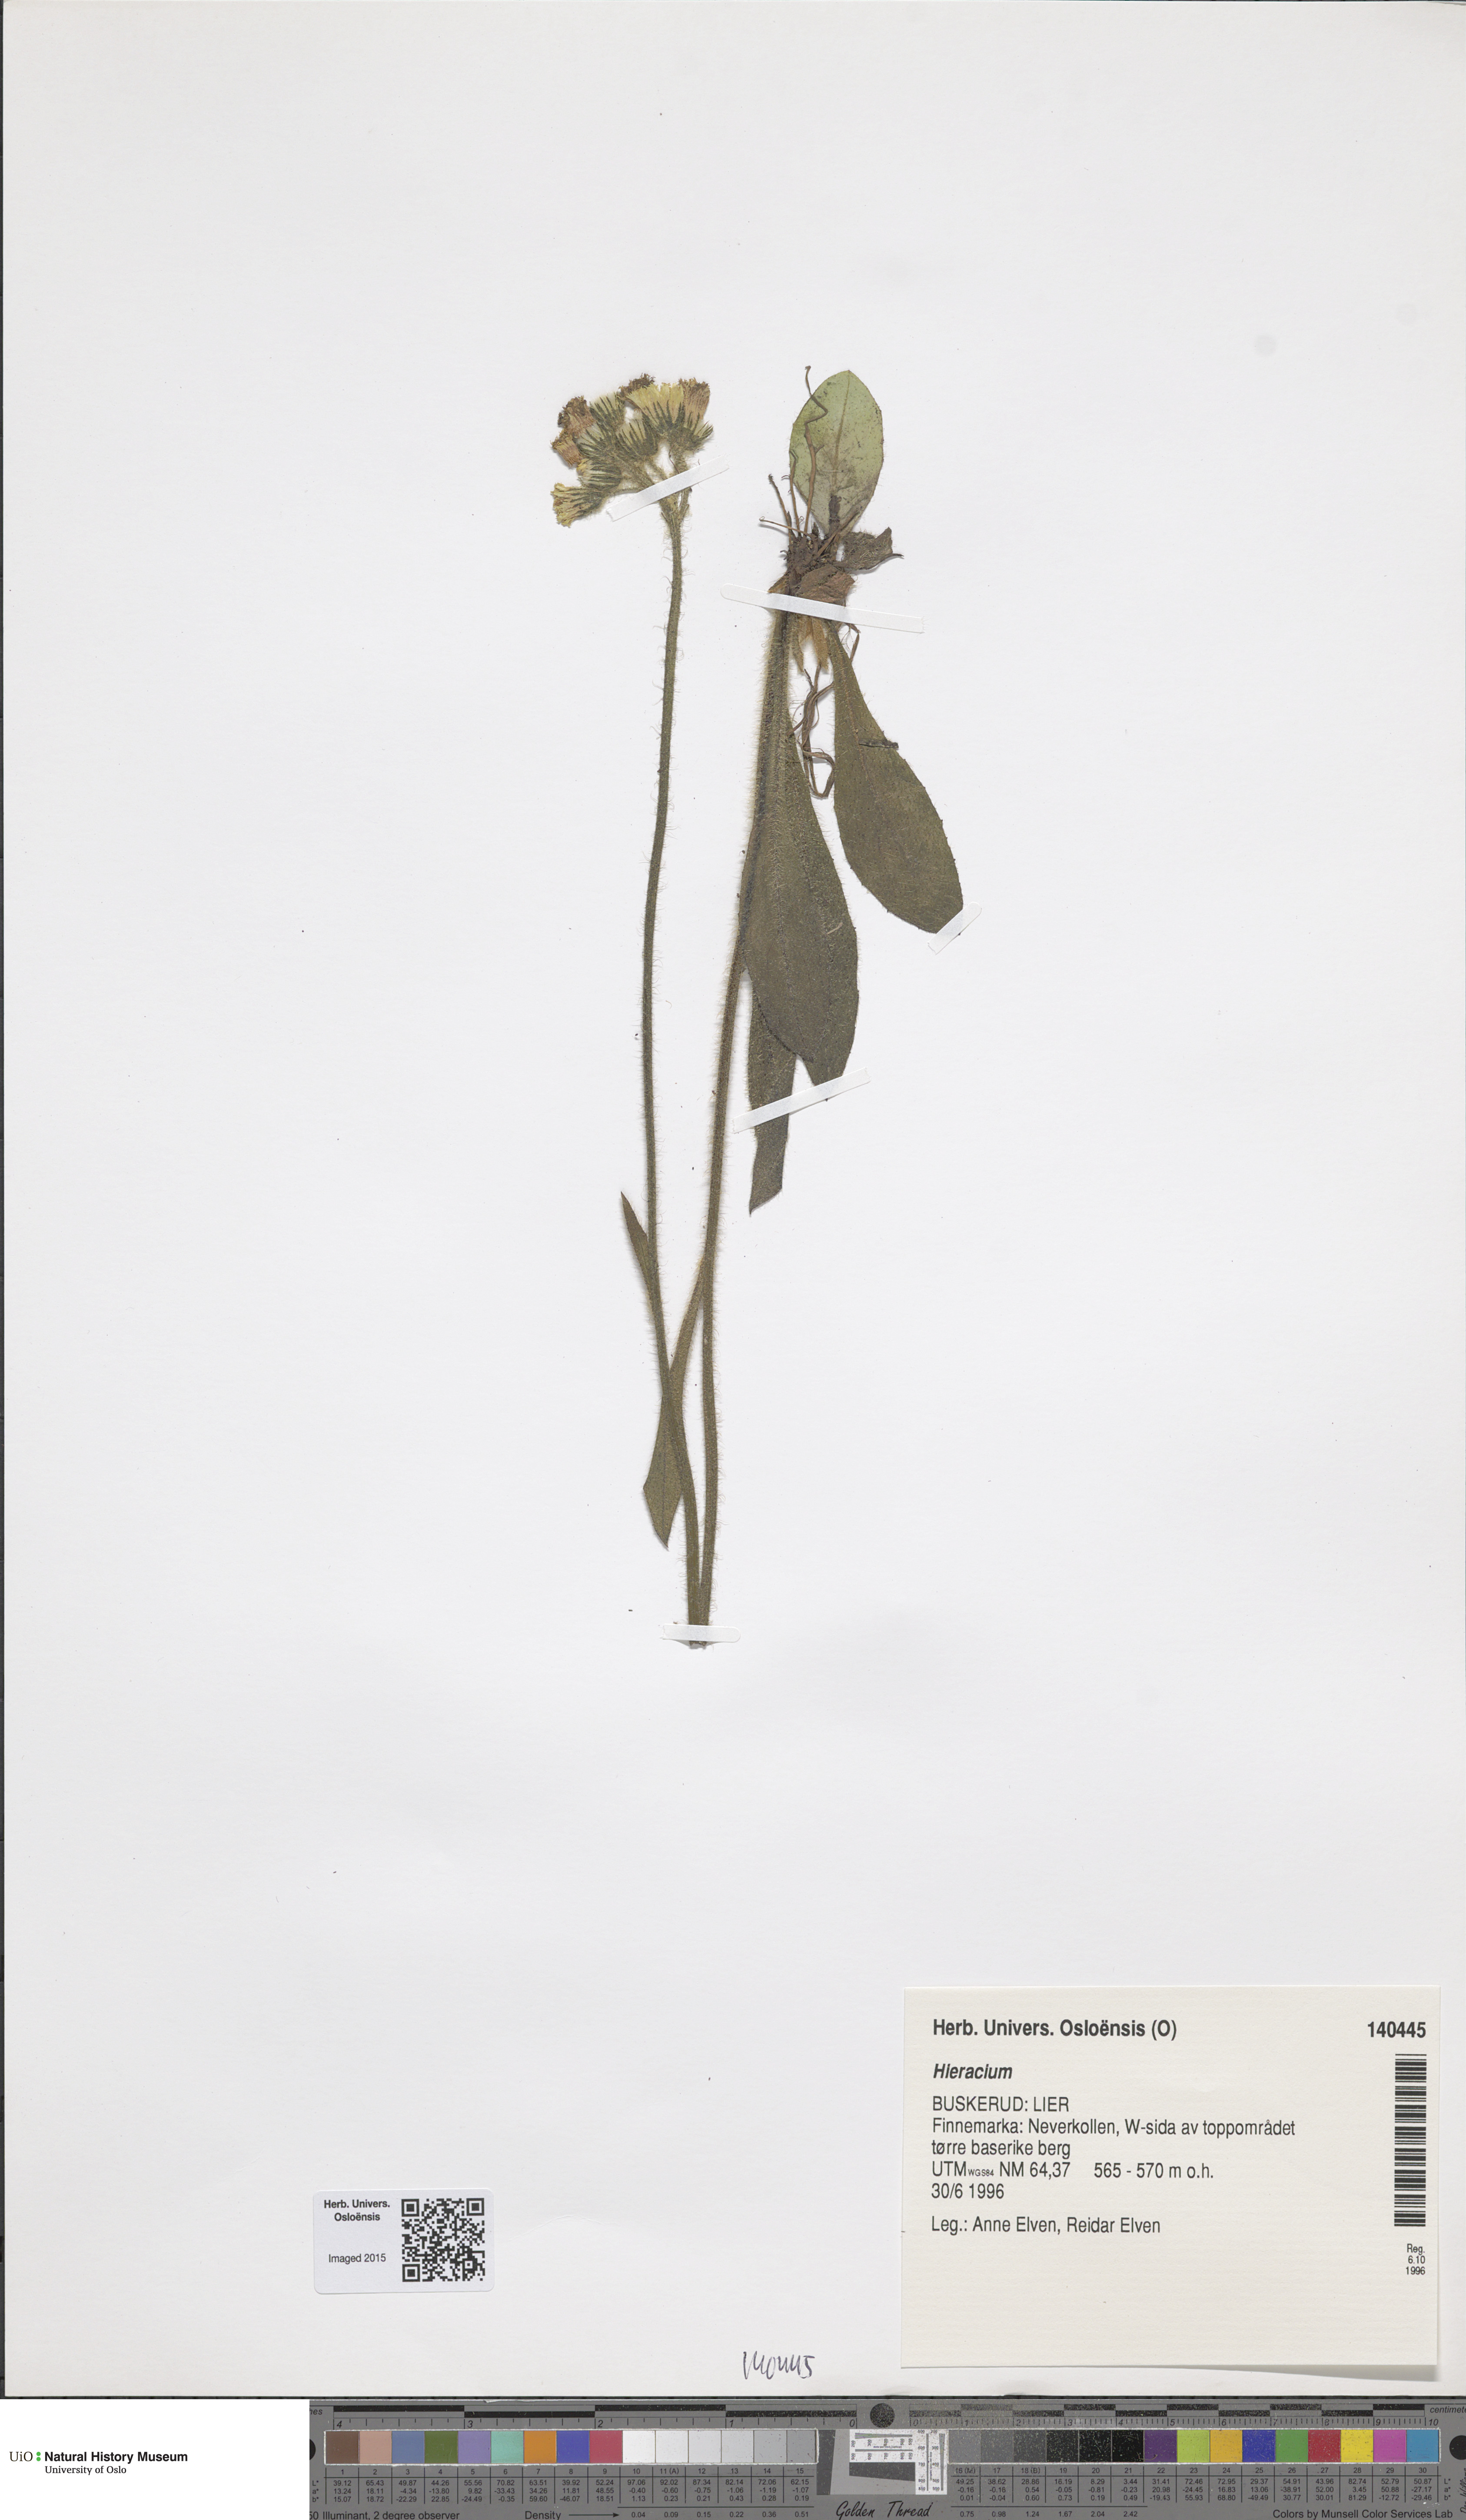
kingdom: Plantae
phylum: Tracheophyta
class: Magnoliopsida
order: Asterales
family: Asteraceae
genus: Hieracium
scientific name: Hieracium
